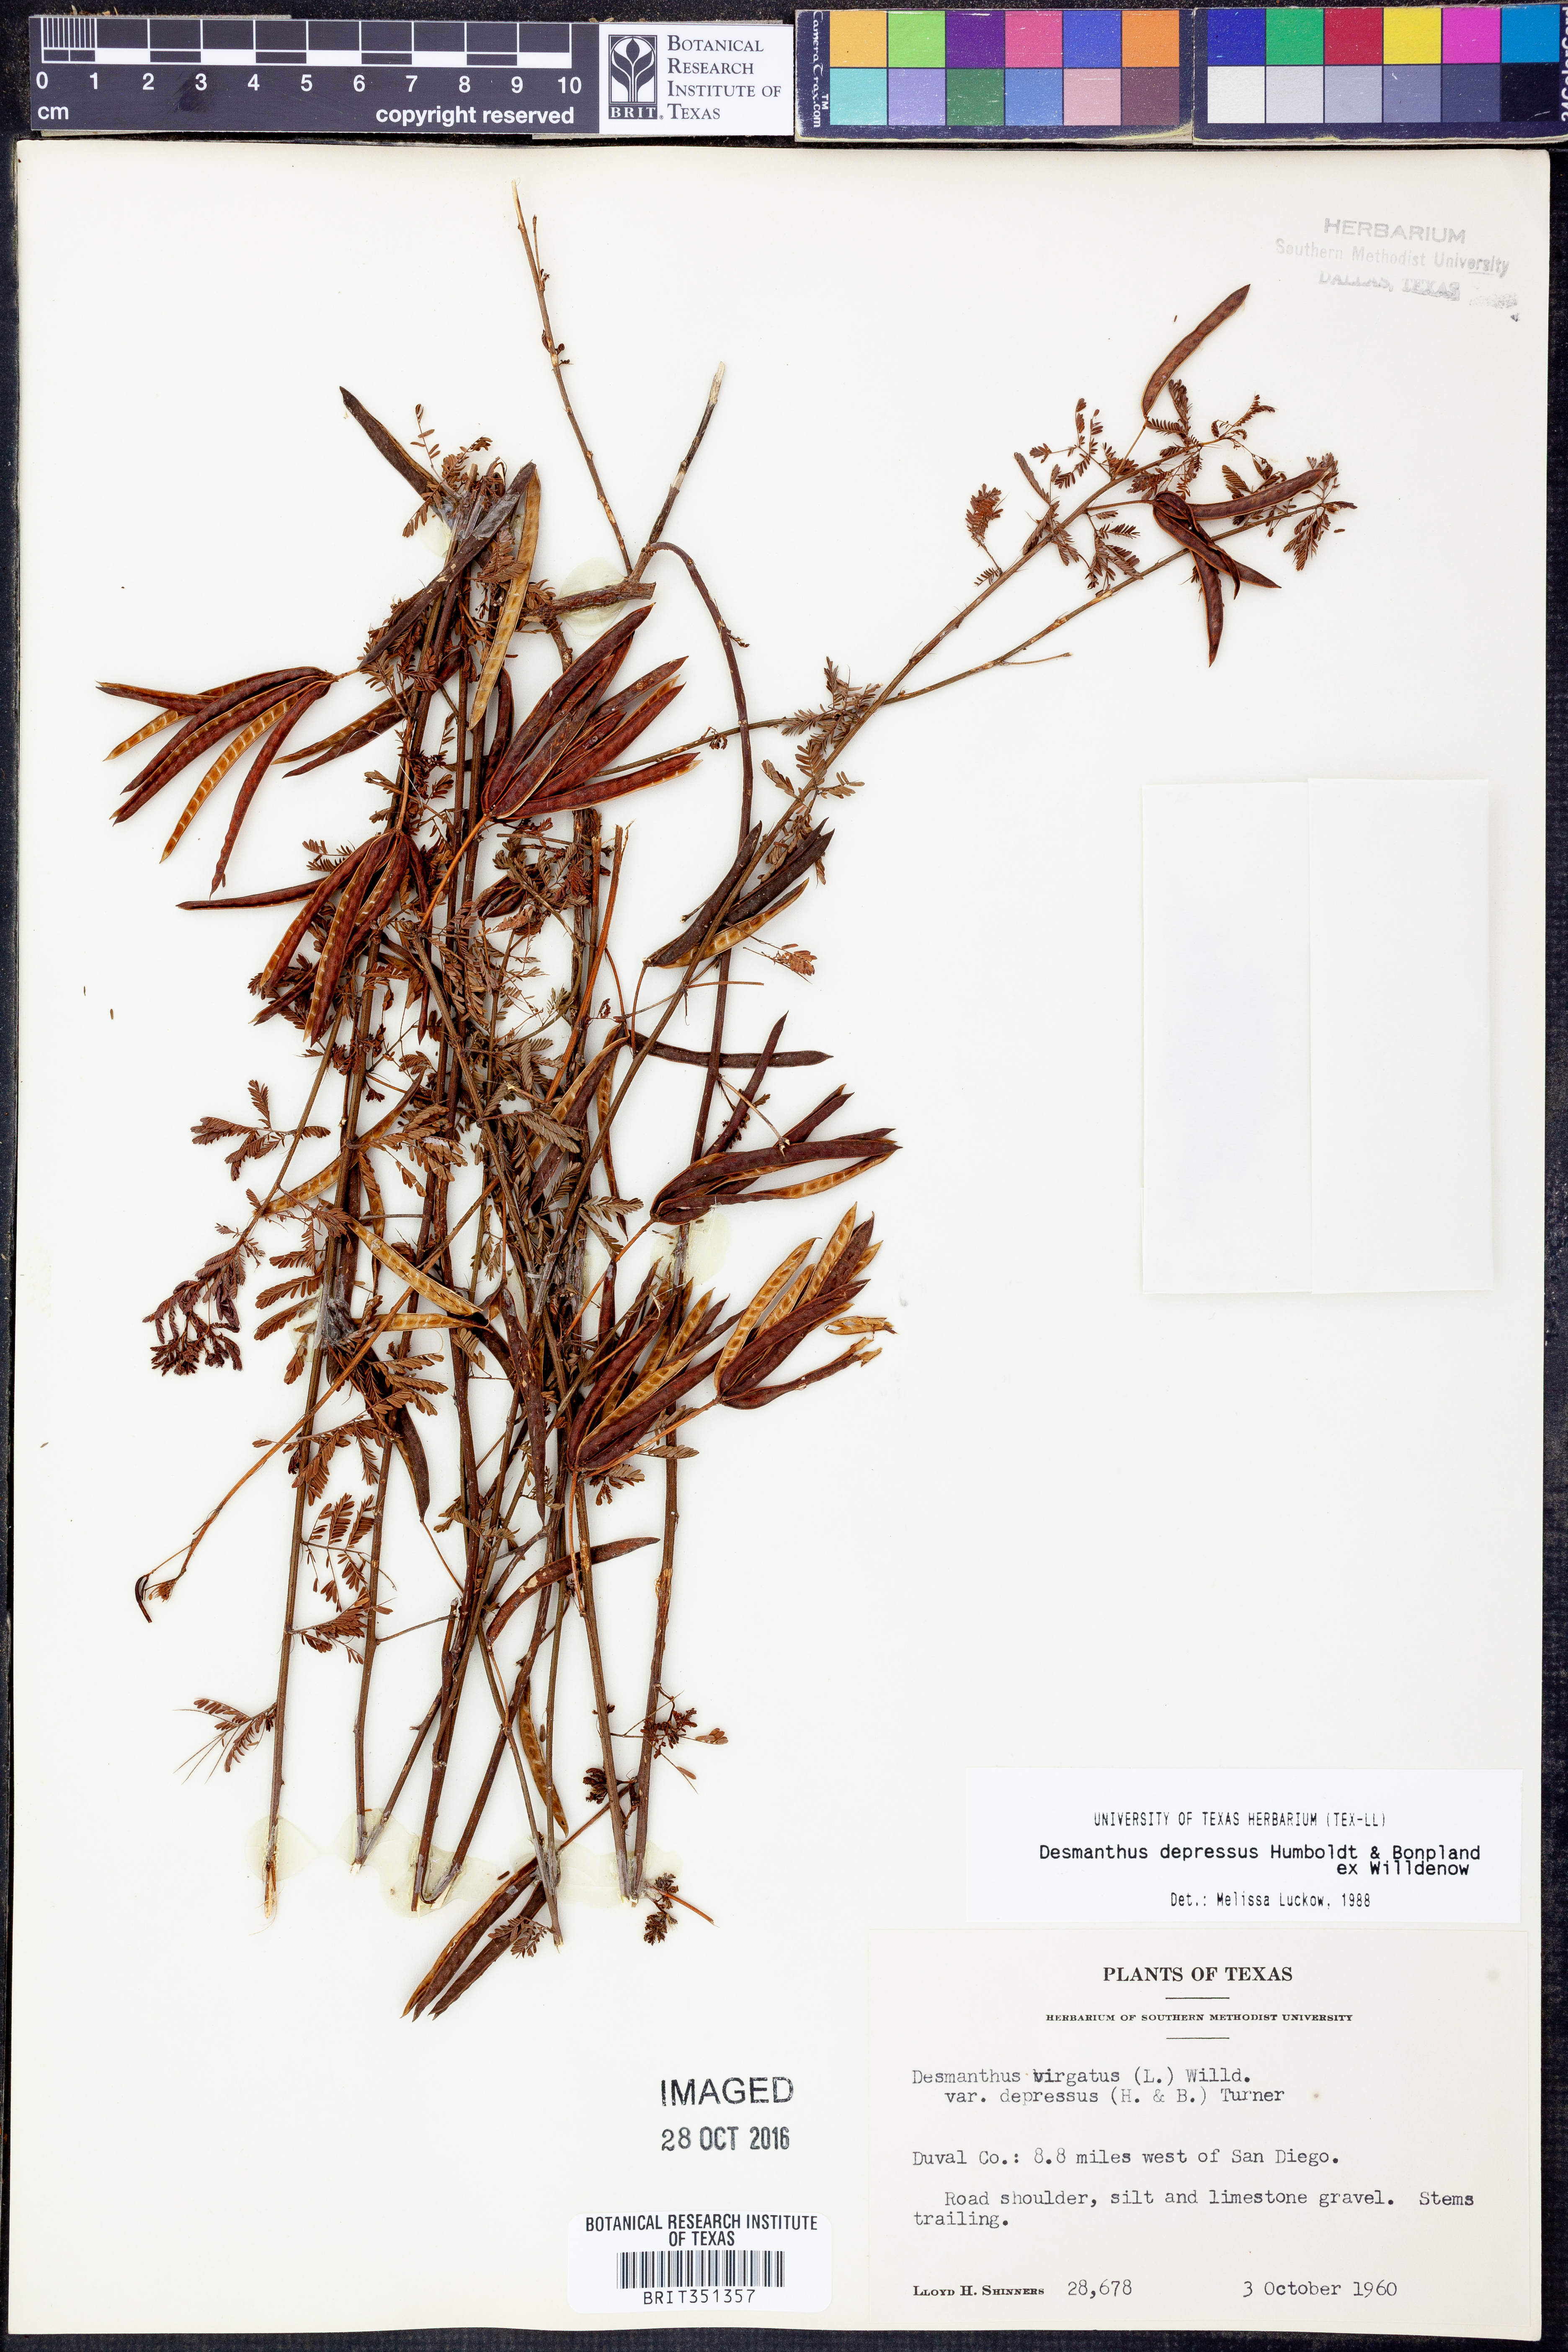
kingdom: Plantae
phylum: Tracheophyta
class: Magnoliopsida
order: Fabales
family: Fabaceae
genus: Desmanthus
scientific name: Desmanthus virgatus
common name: Wild tantan
